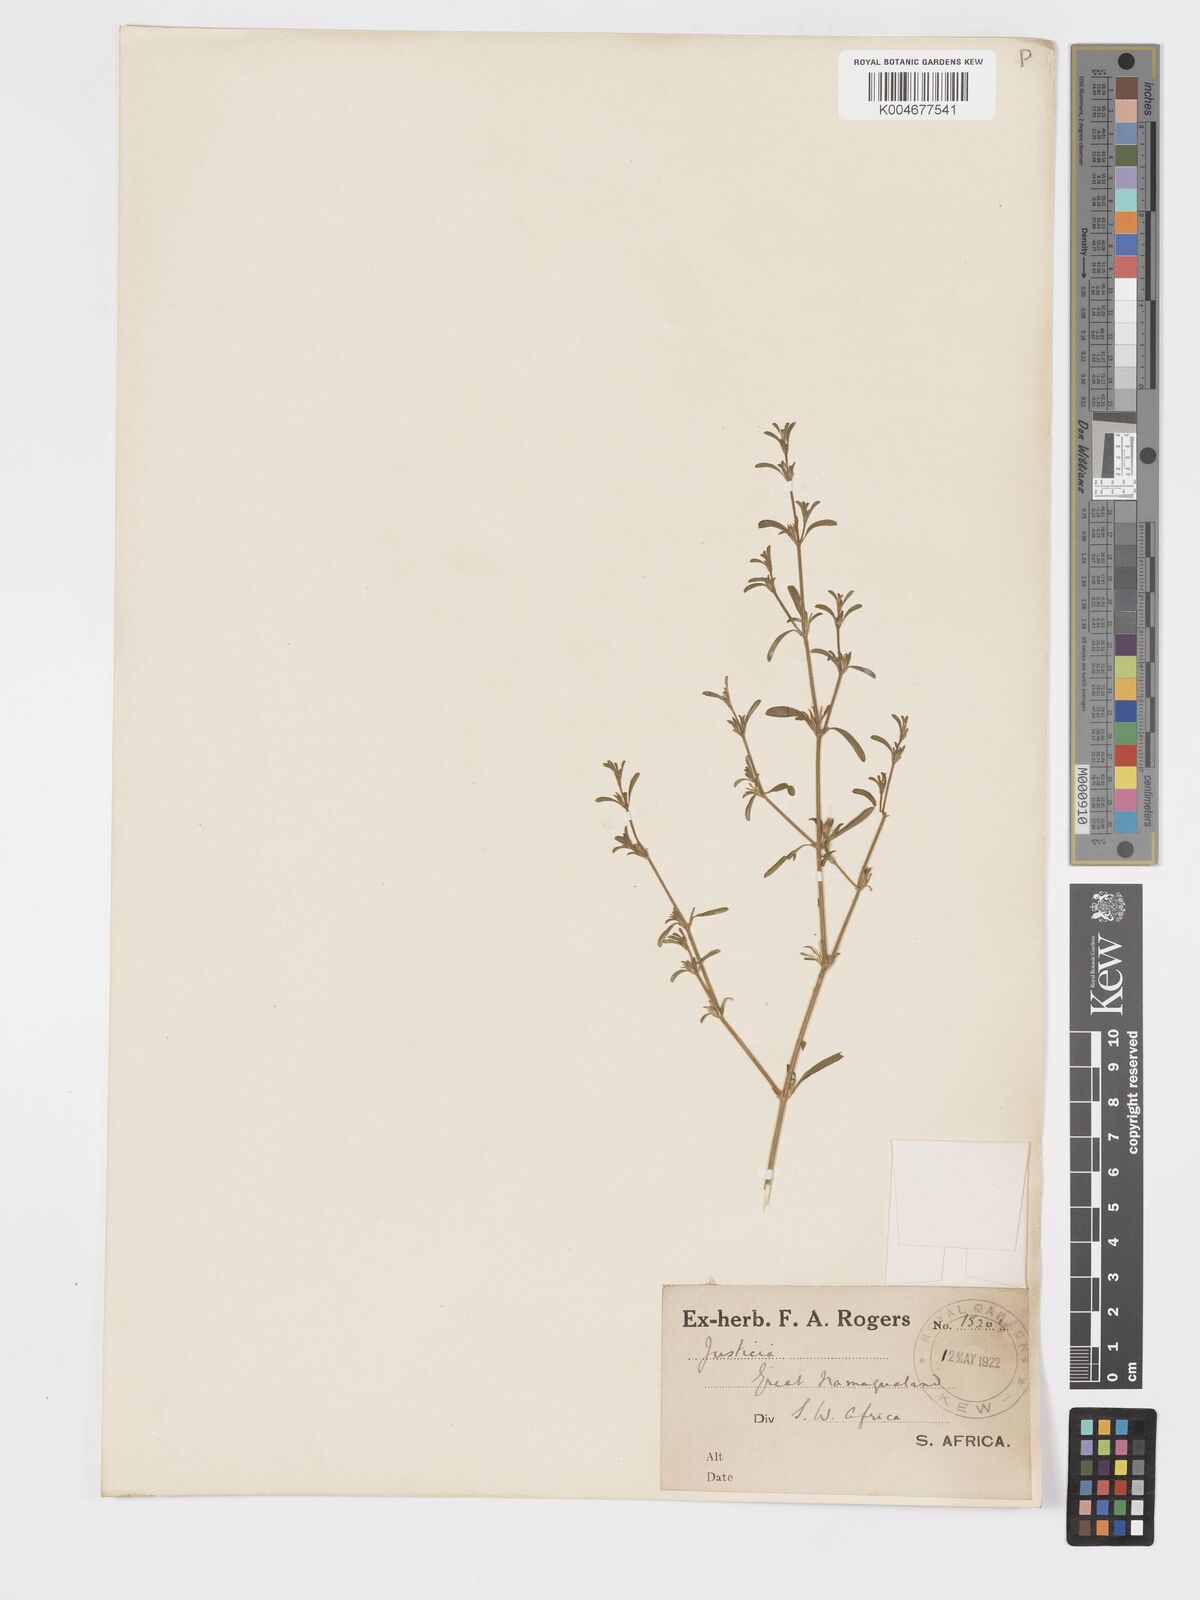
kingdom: Plantae
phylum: Tracheophyta
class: Magnoliopsida
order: Lamiales
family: Acanthaceae
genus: Pogonospermum
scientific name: Pogonospermum
